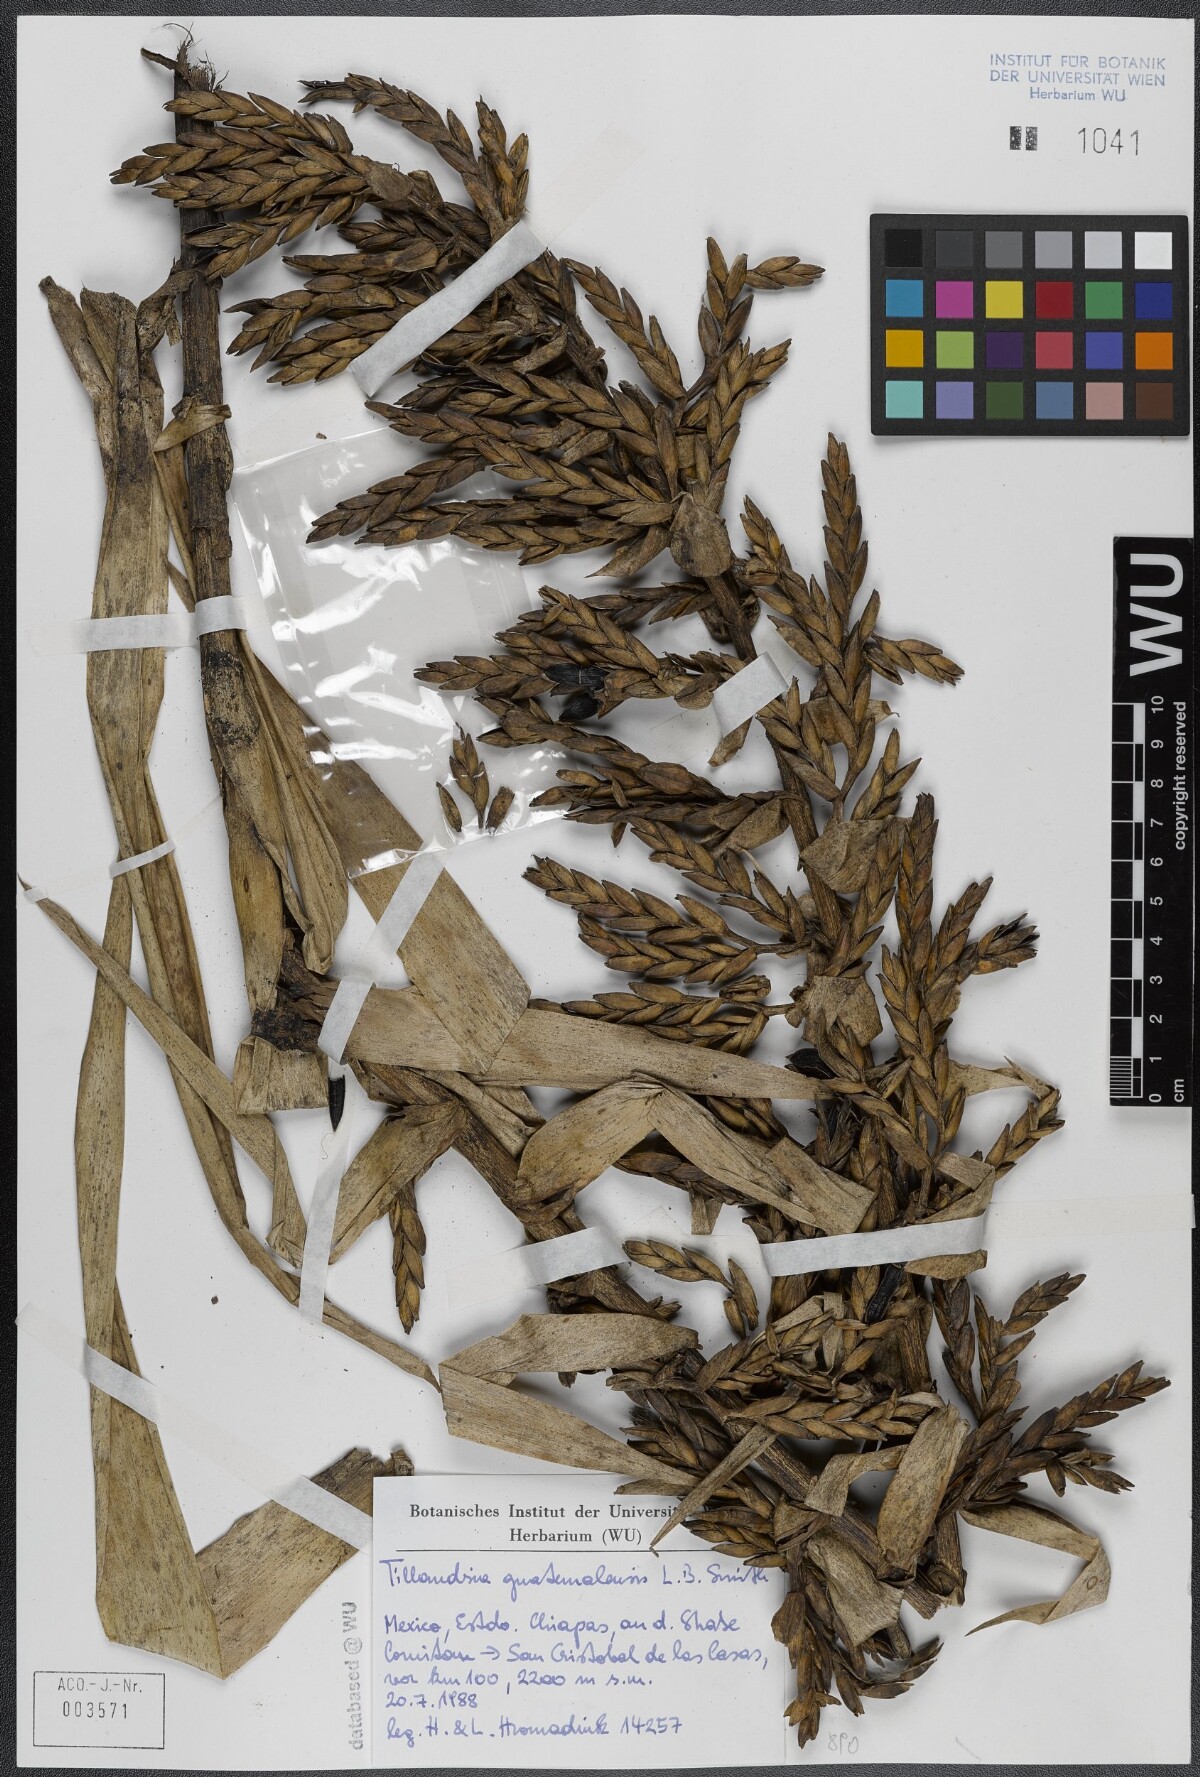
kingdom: Plantae
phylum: Tracheophyta
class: Liliopsida
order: Poales
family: Bromeliaceae
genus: Tillandsia
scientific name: Tillandsia guatemalensis
